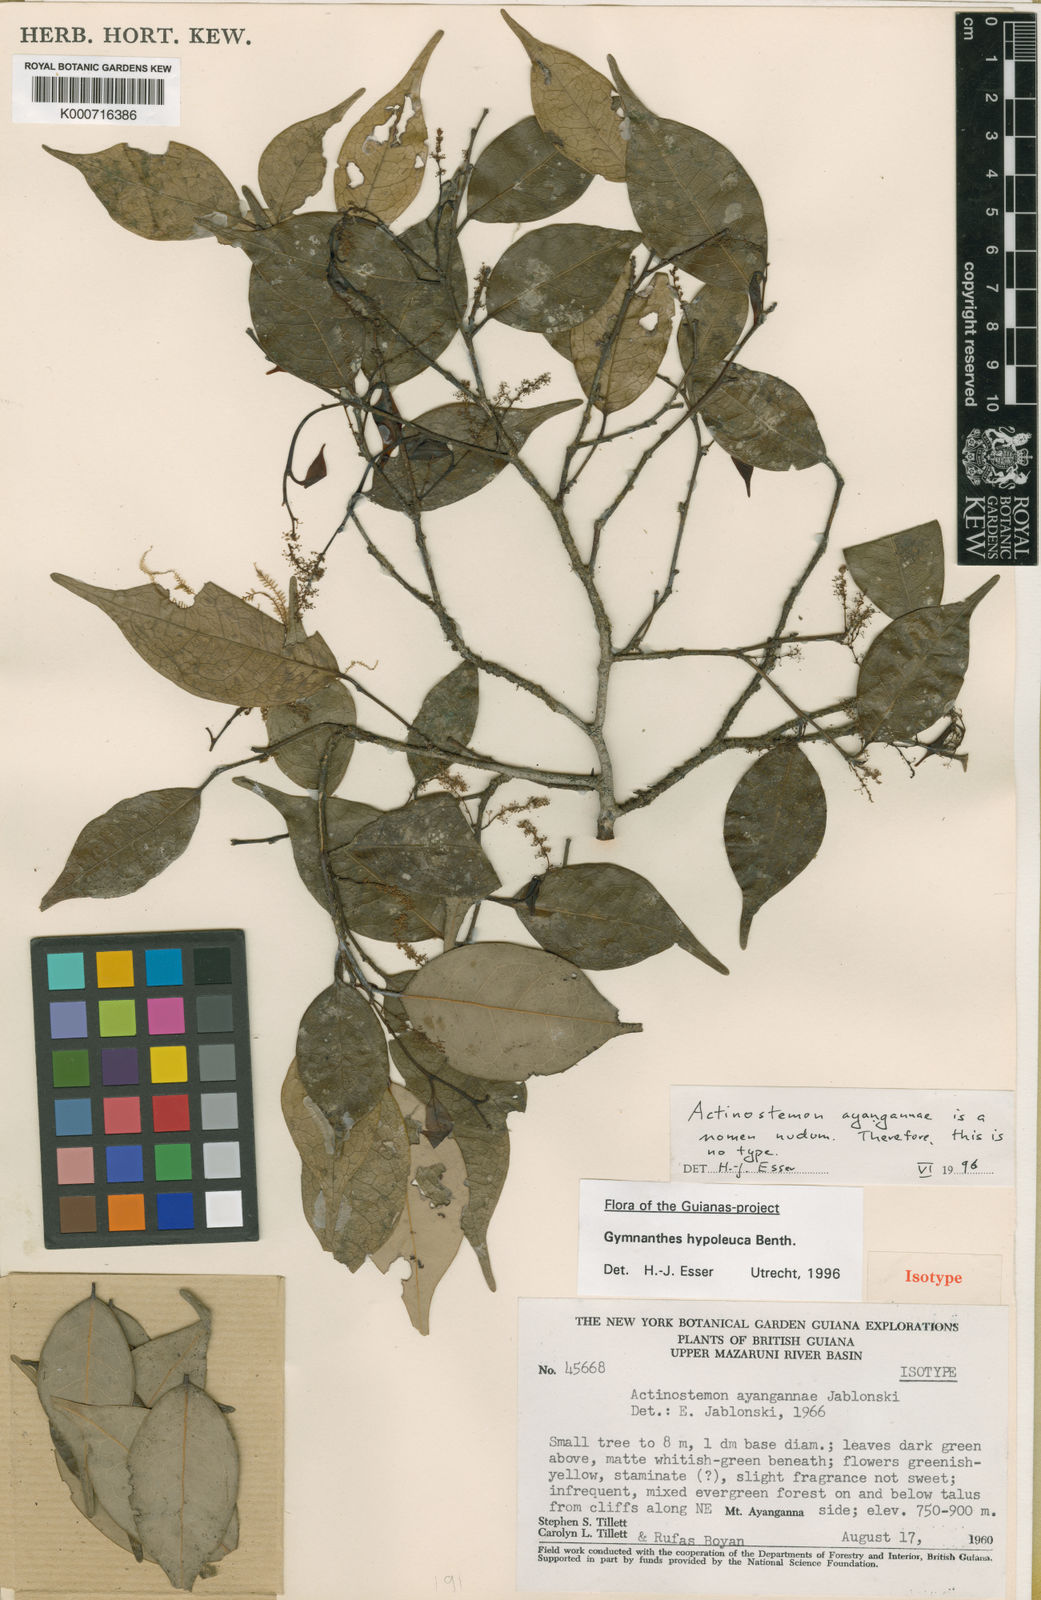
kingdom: Plantae
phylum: Tracheophyta
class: Magnoliopsida
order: Malpighiales
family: Euphorbiaceae
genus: Gymnanthes
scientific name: Gymnanthes hypoleuca
